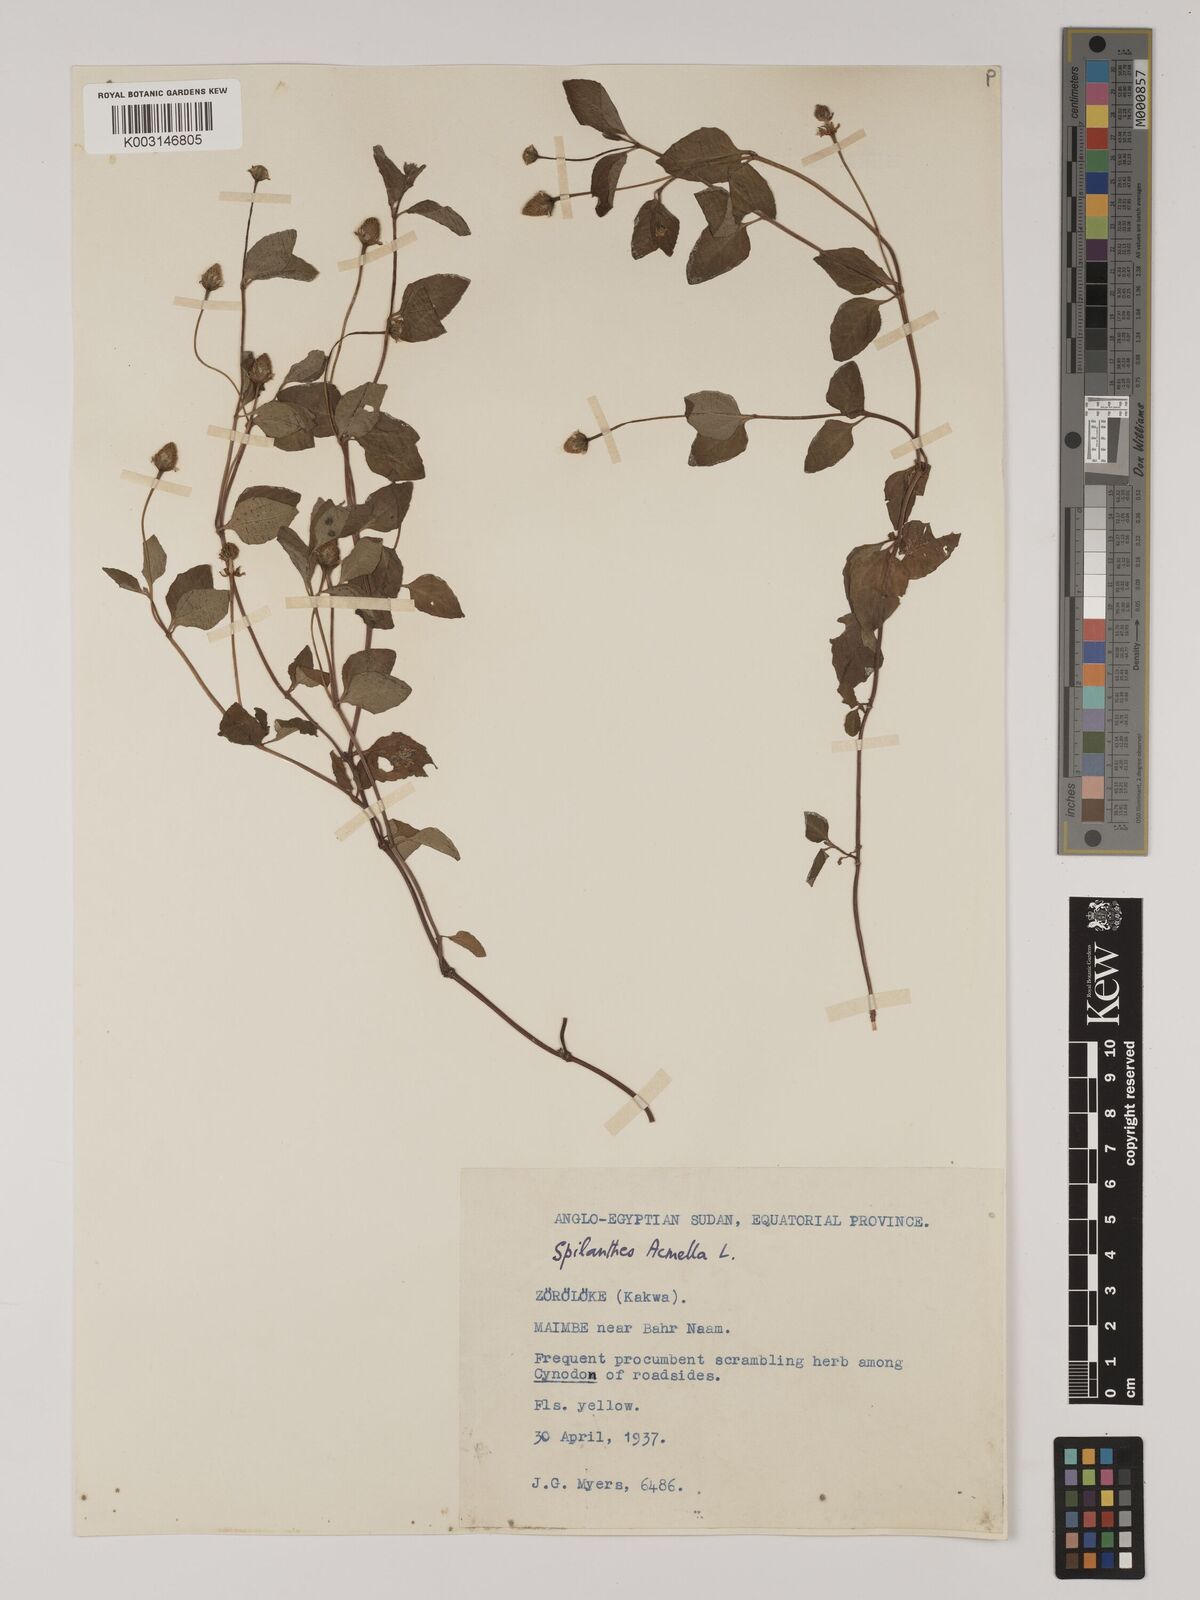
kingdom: Plantae
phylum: Tracheophyta
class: Magnoliopsida
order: Asterales
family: Asteraceae
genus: Blainvillea
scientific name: Blainvillea acmella
